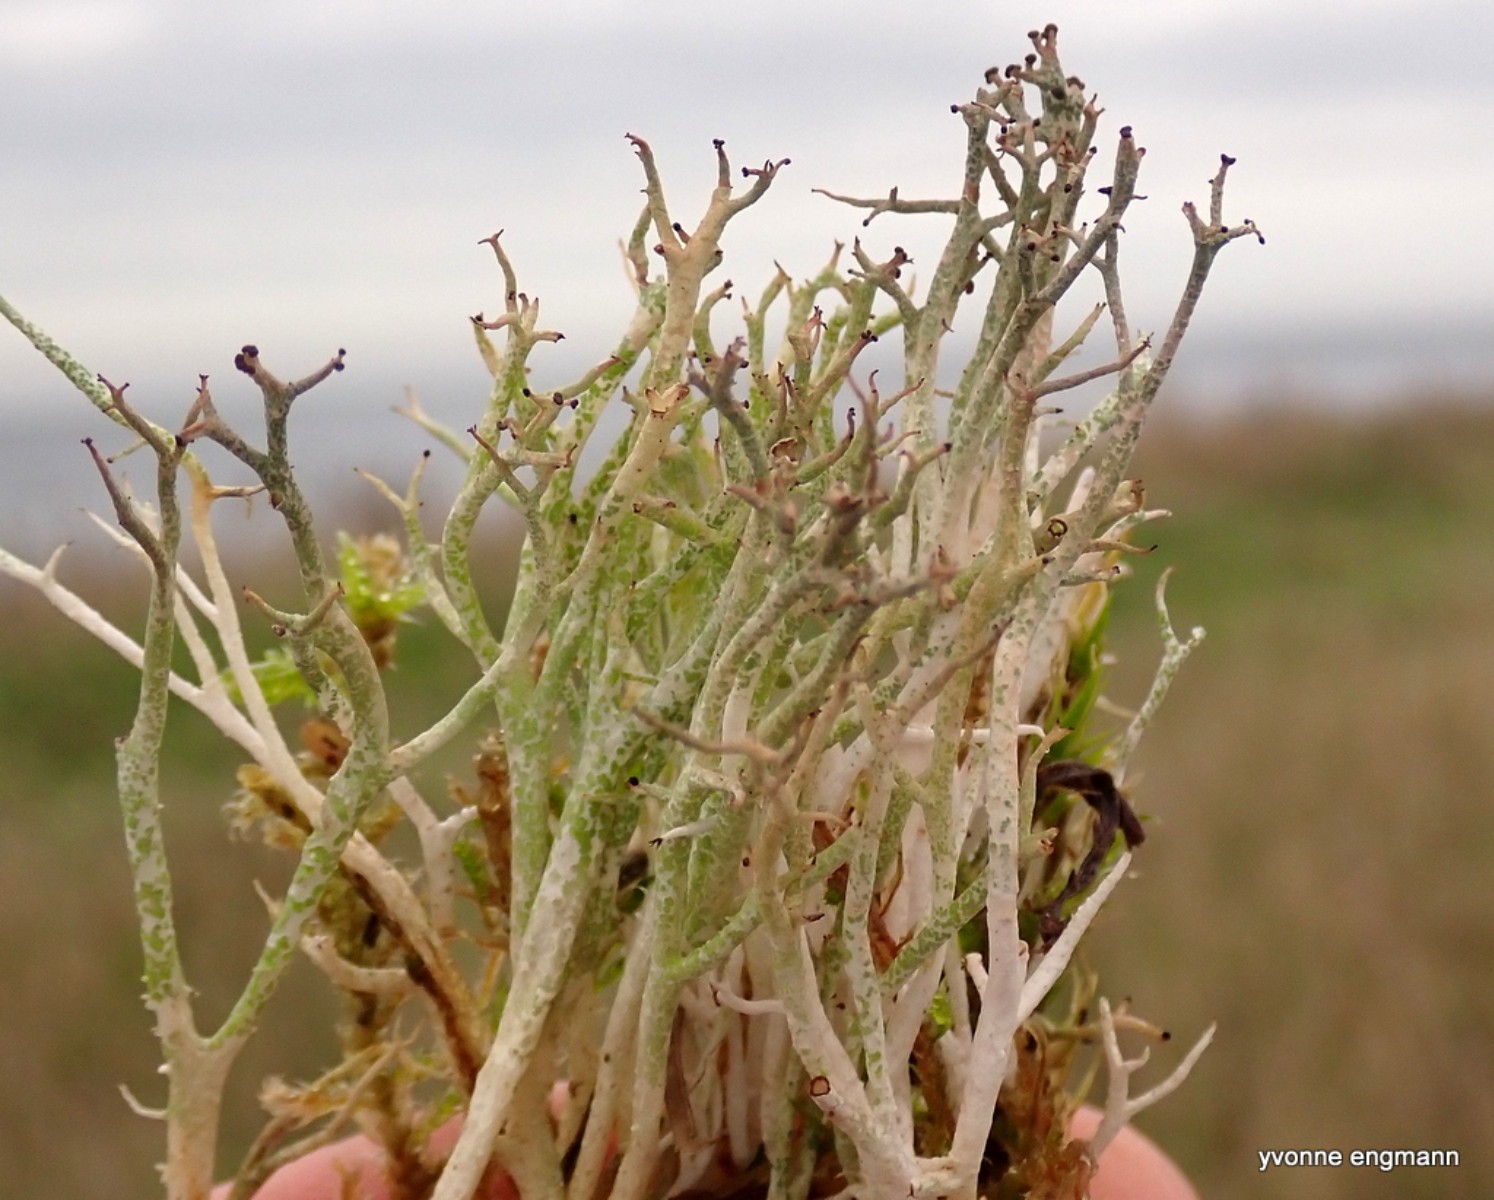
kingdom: Fungi
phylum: Ascomycota
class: Lecanoromycetes
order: Lecanorales
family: Cladoniaceae
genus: Cladonia
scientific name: Cladonia rangiformis
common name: spættet bægerlav
